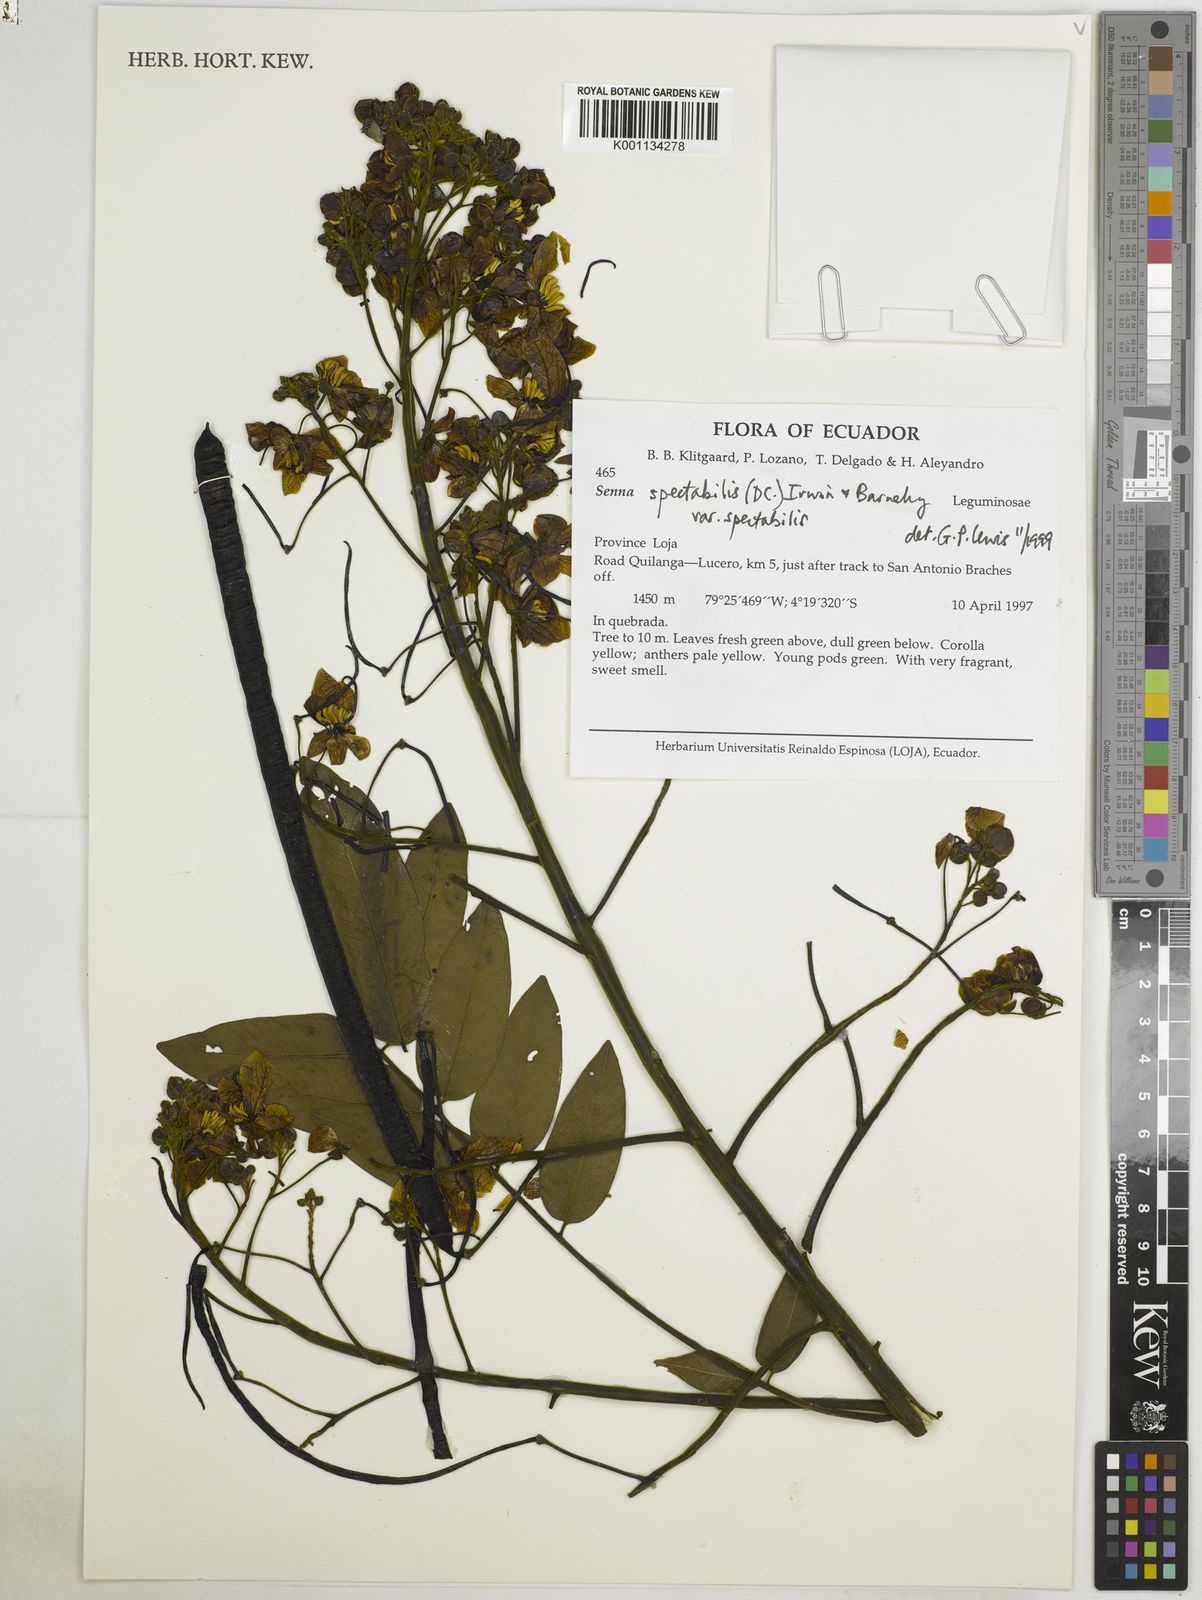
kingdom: Plantae
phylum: Tracheophyta
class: Magnoliopsida
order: Fabales
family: Fabaceae
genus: Senna
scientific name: Senna spectabilis
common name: Casia amarilla
